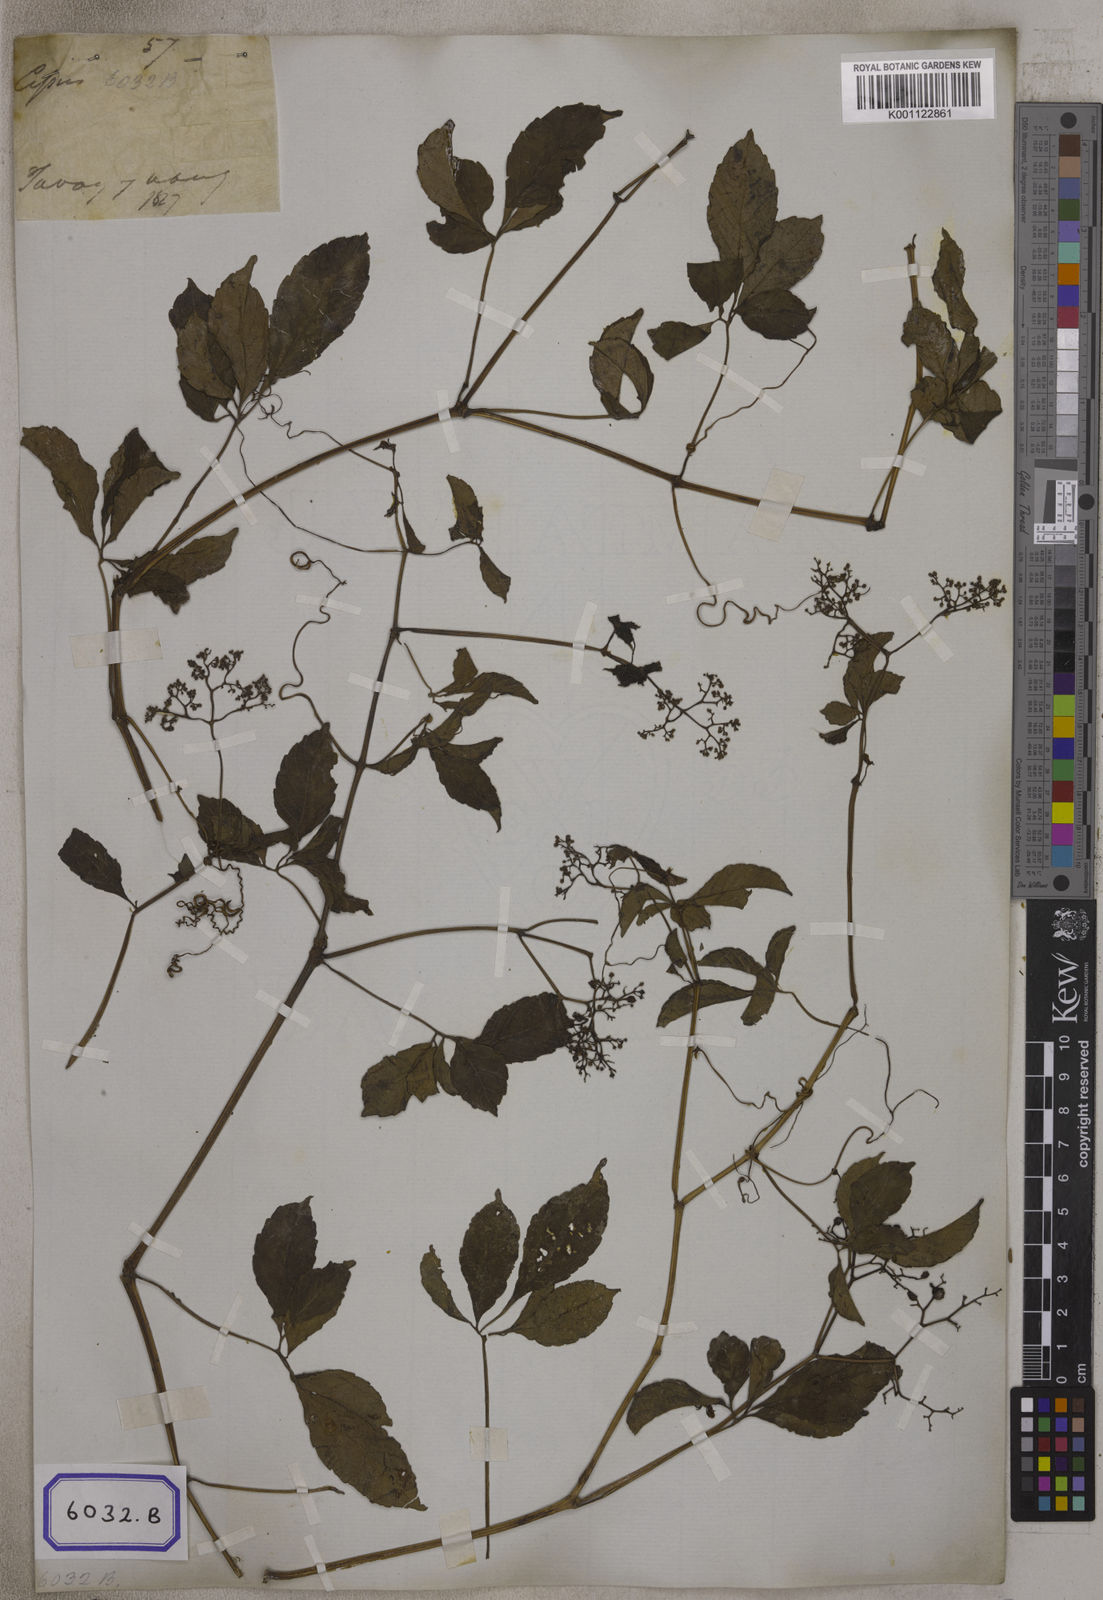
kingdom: Plantae
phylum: Tracheophyta
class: Magnoliopsida
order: Vitales
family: Vitaceae
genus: Causonis
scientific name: Causonis japonica
